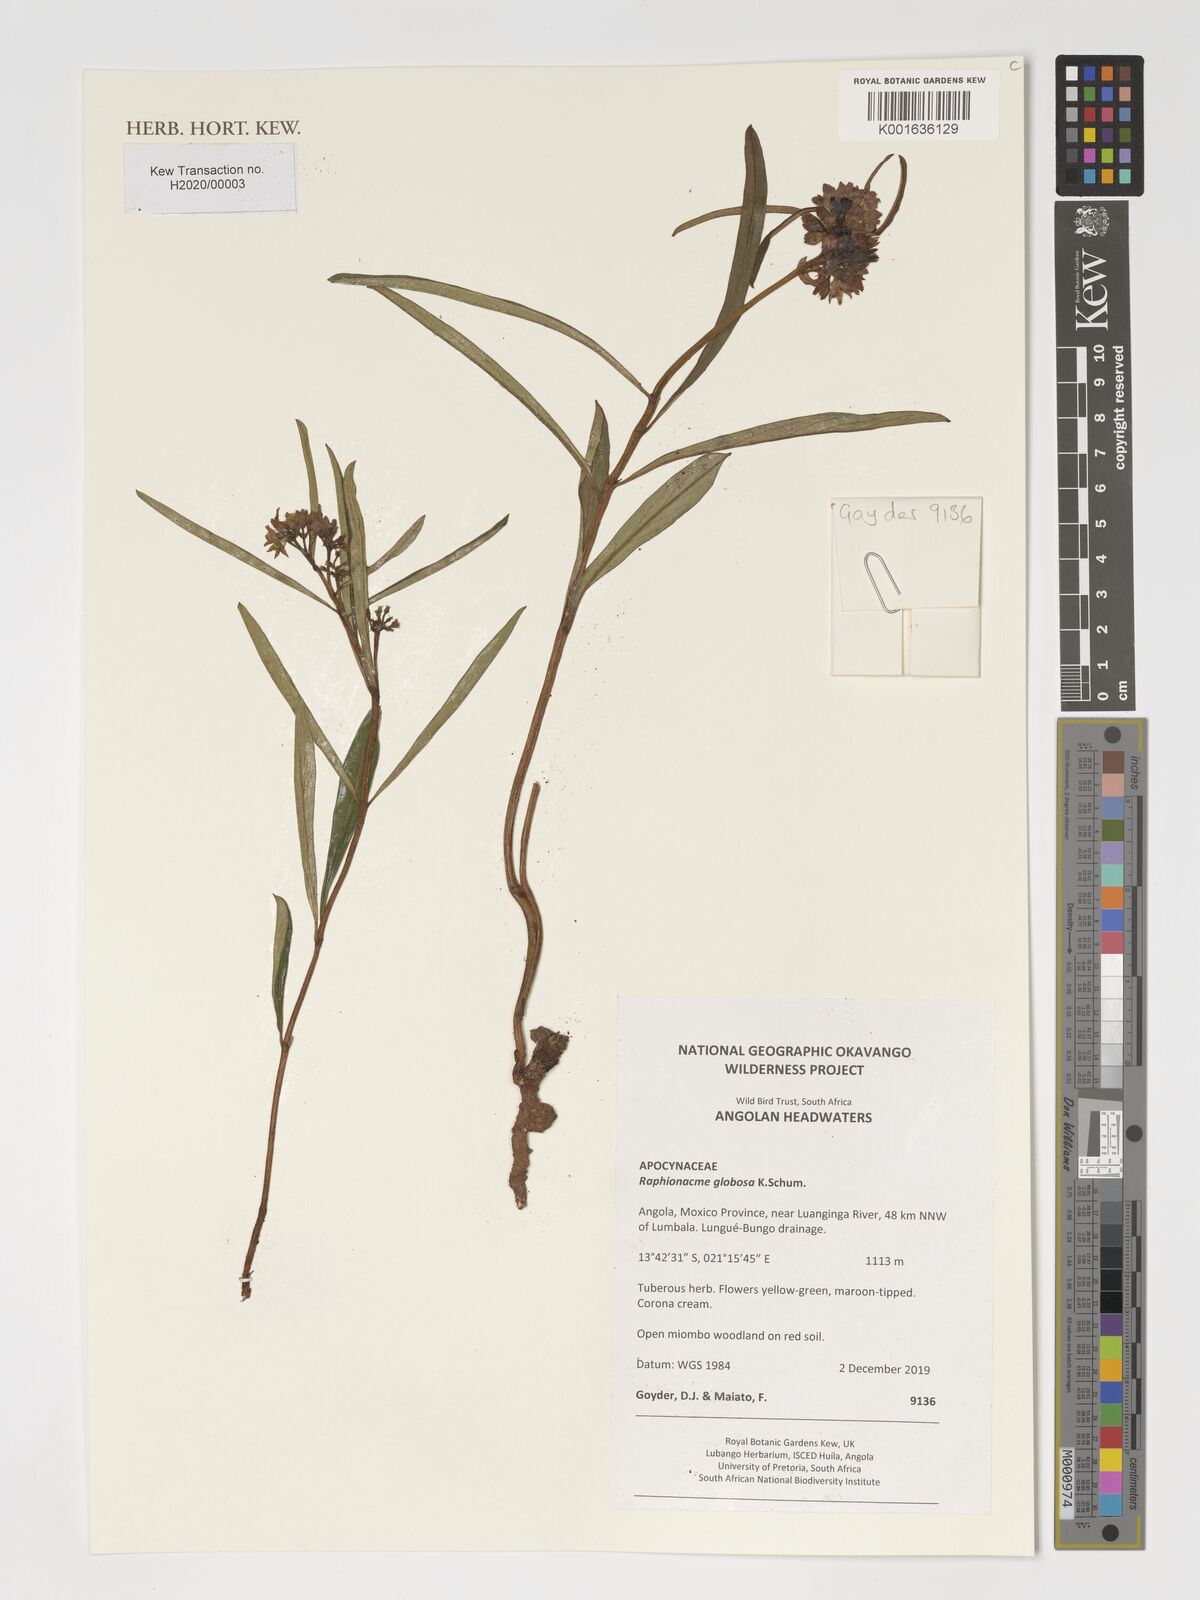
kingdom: Plantae
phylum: Tracheophyta
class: Magnoliopsida
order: Gentianales
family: Apocynaceae
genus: Raphionacme
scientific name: Raphionacme globosa
